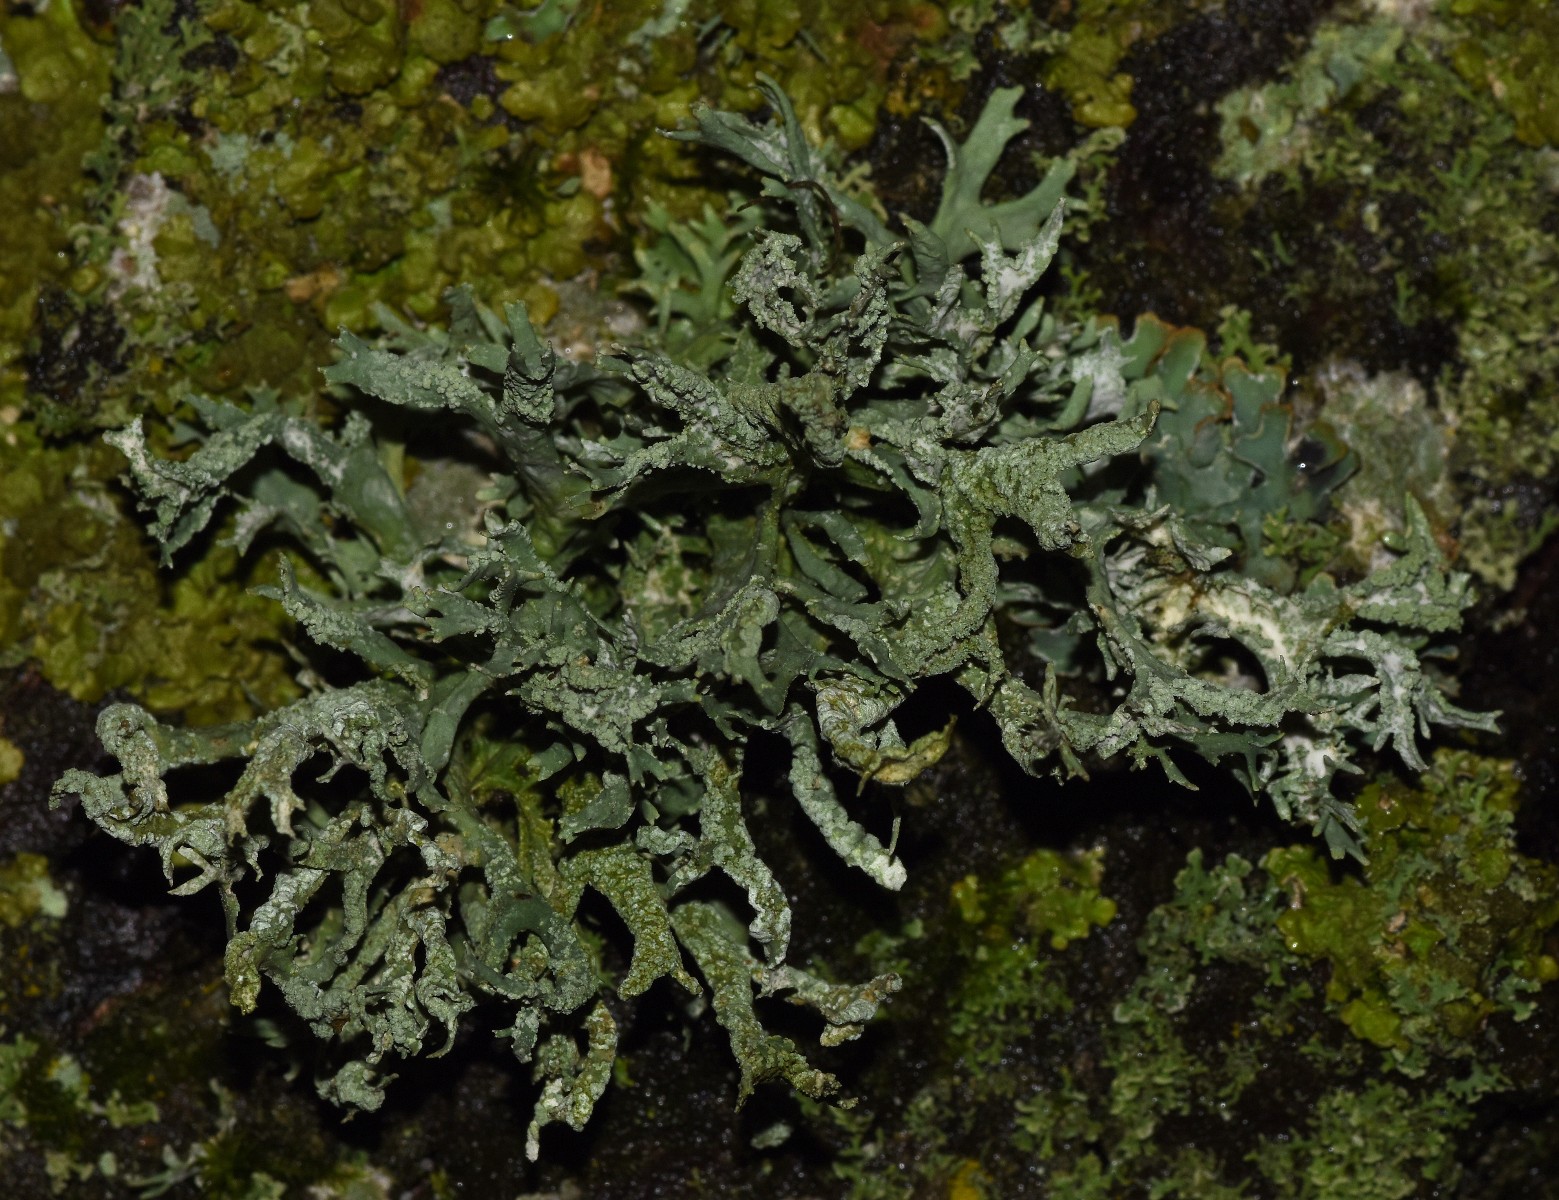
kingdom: Fungi
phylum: Ascomycota
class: Lecanoromycetes
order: Lecanorales
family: Parmeliaceae
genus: Evernia
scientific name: Evernia prunastri
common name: almindelig slåenlav
